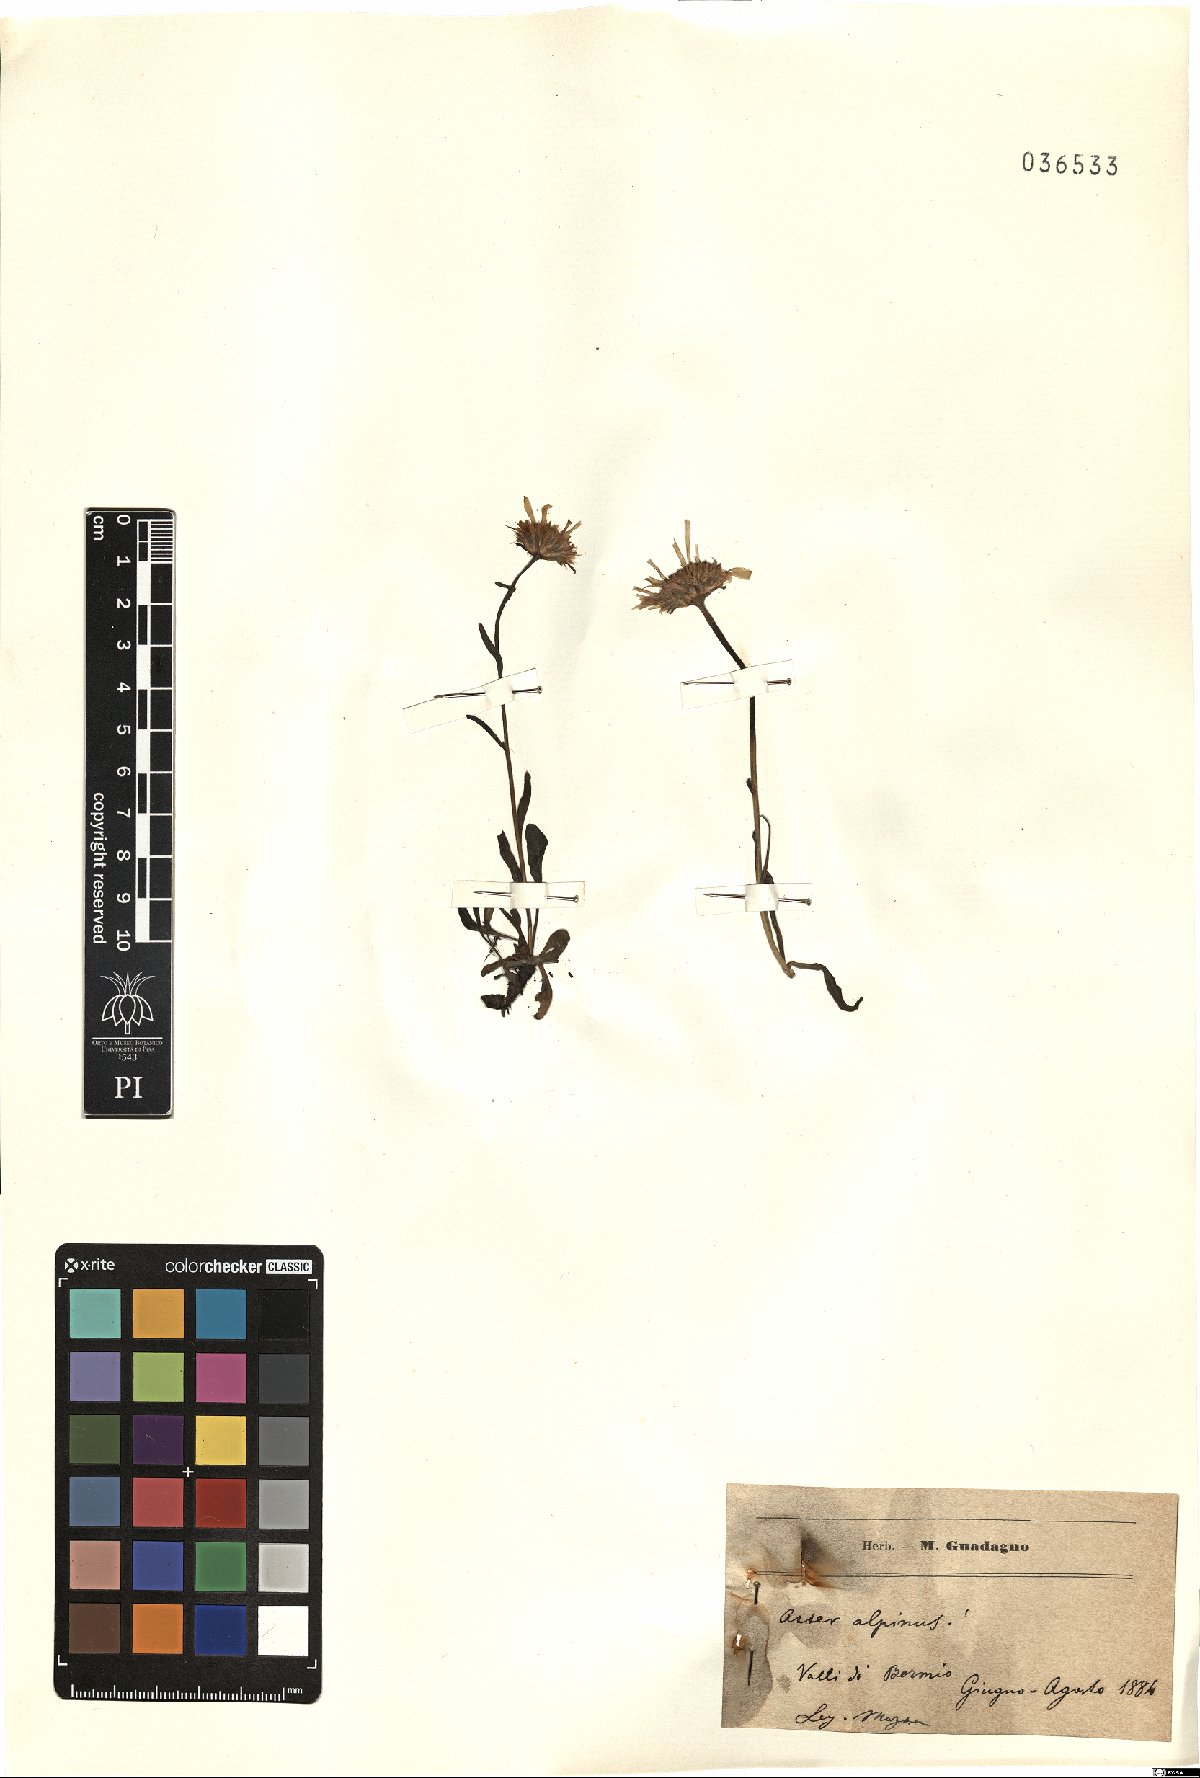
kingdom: Plantae
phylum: Tracheophyta
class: Magnoliopsida
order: Asterales
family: Asteraceae
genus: Aster
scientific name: Aster alpinus
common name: Alpine aster
